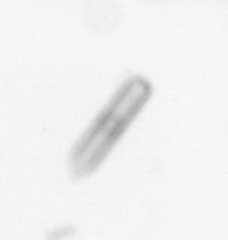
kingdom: Chromista
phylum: Ochrophyta
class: Bacillariophyceae
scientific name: Bacillariophyceae
